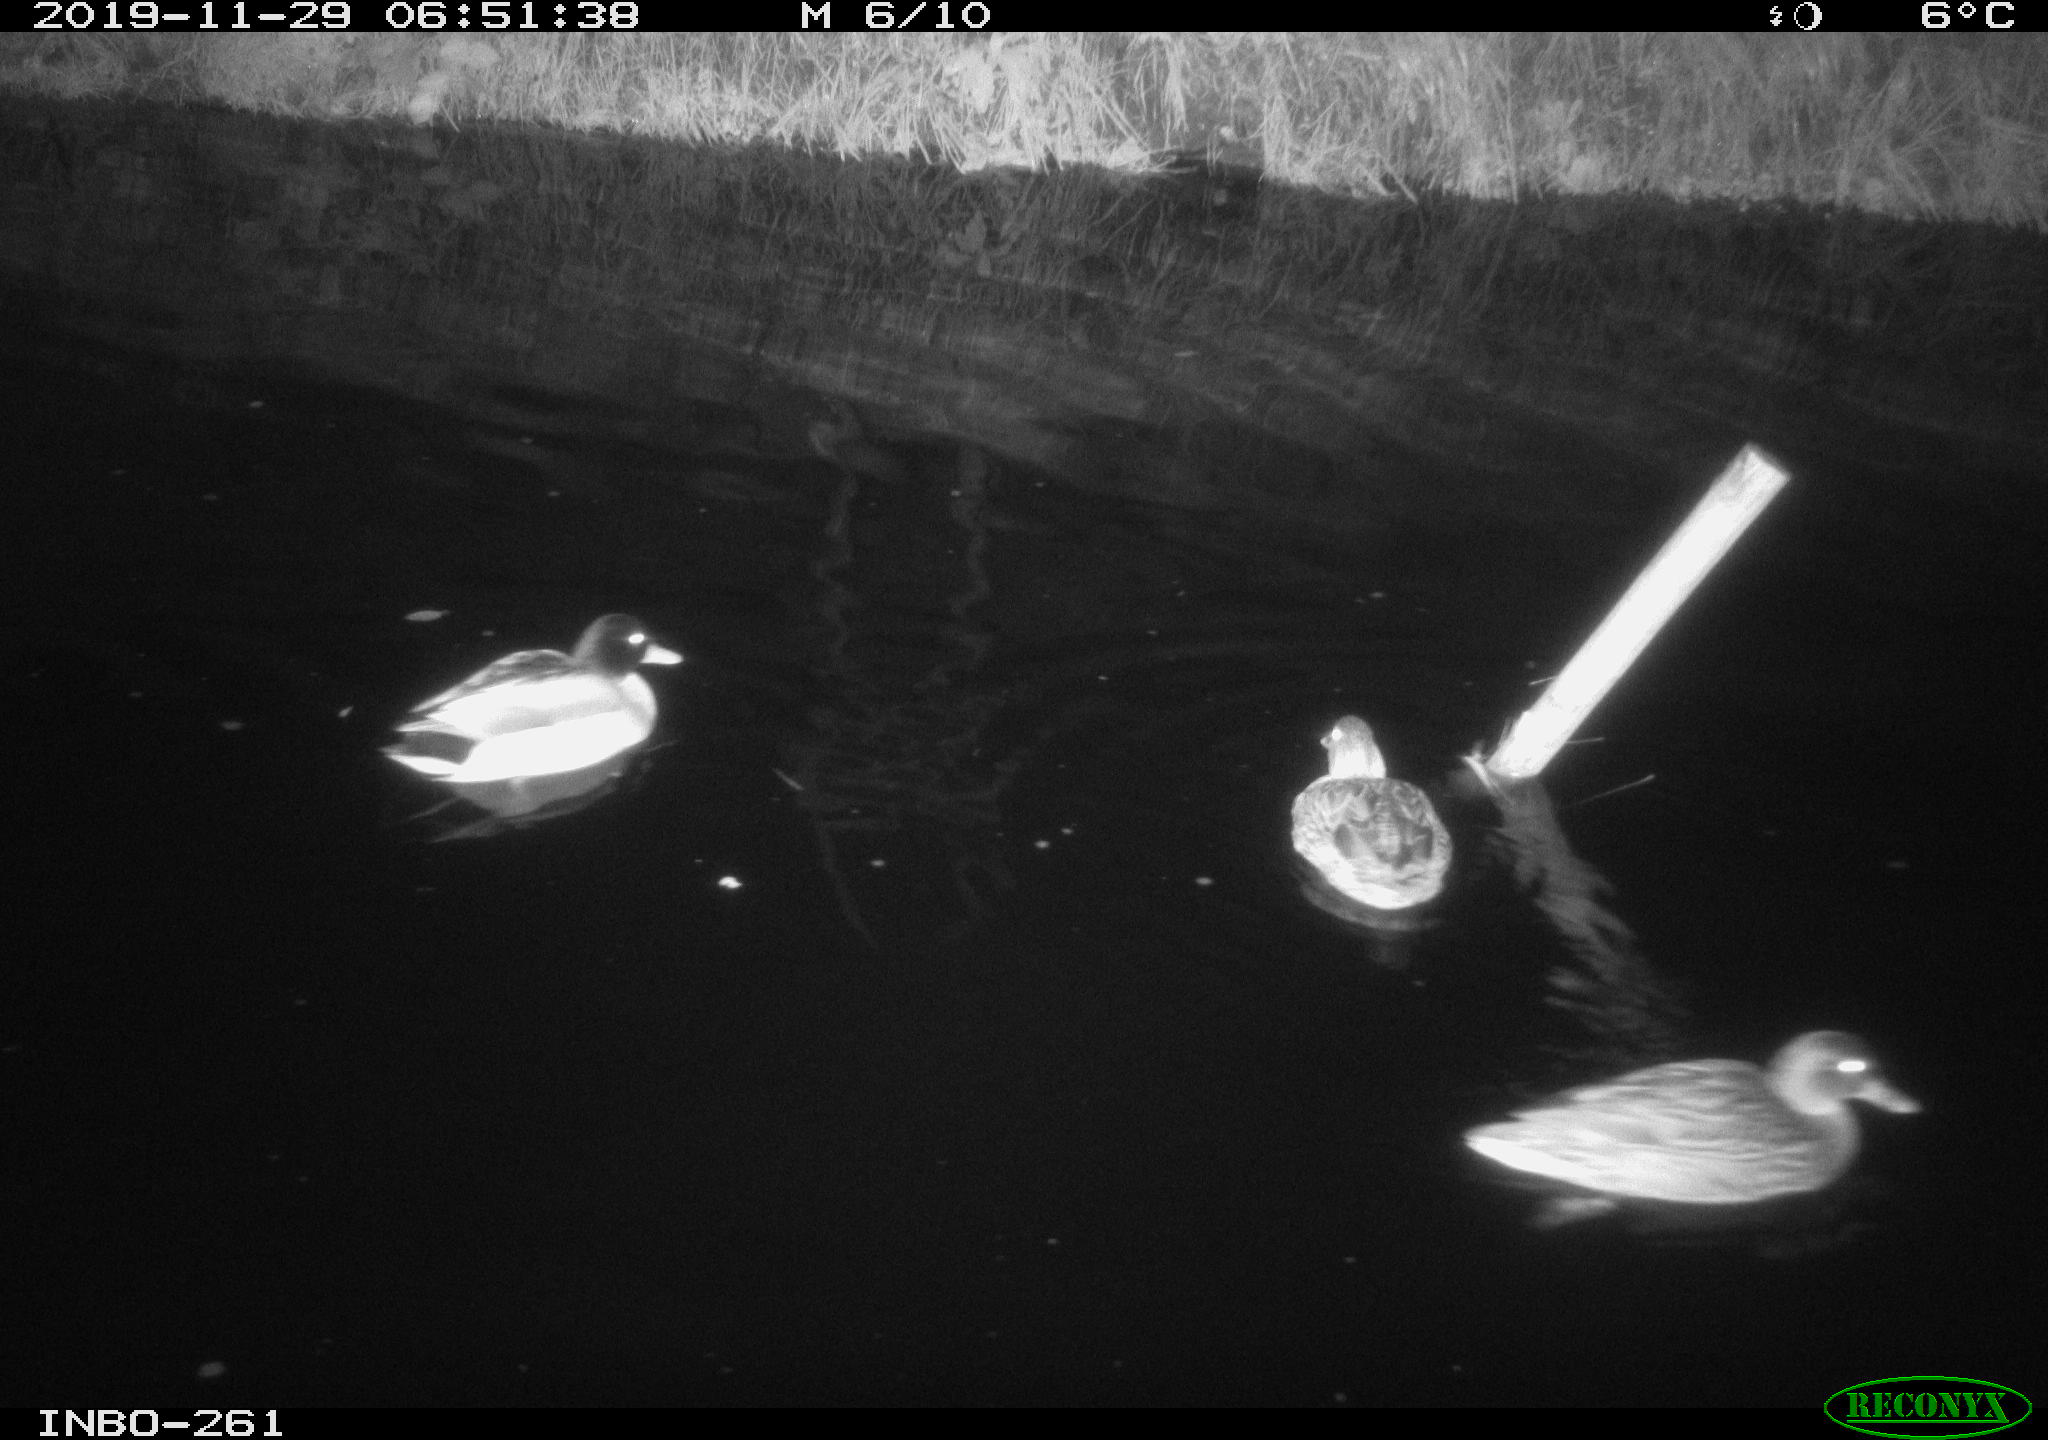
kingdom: Animalia
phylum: Chordata
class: Aves
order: Anseriformes
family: Anatidae
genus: Anas
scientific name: Anas platyrhynchos
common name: Mallard
